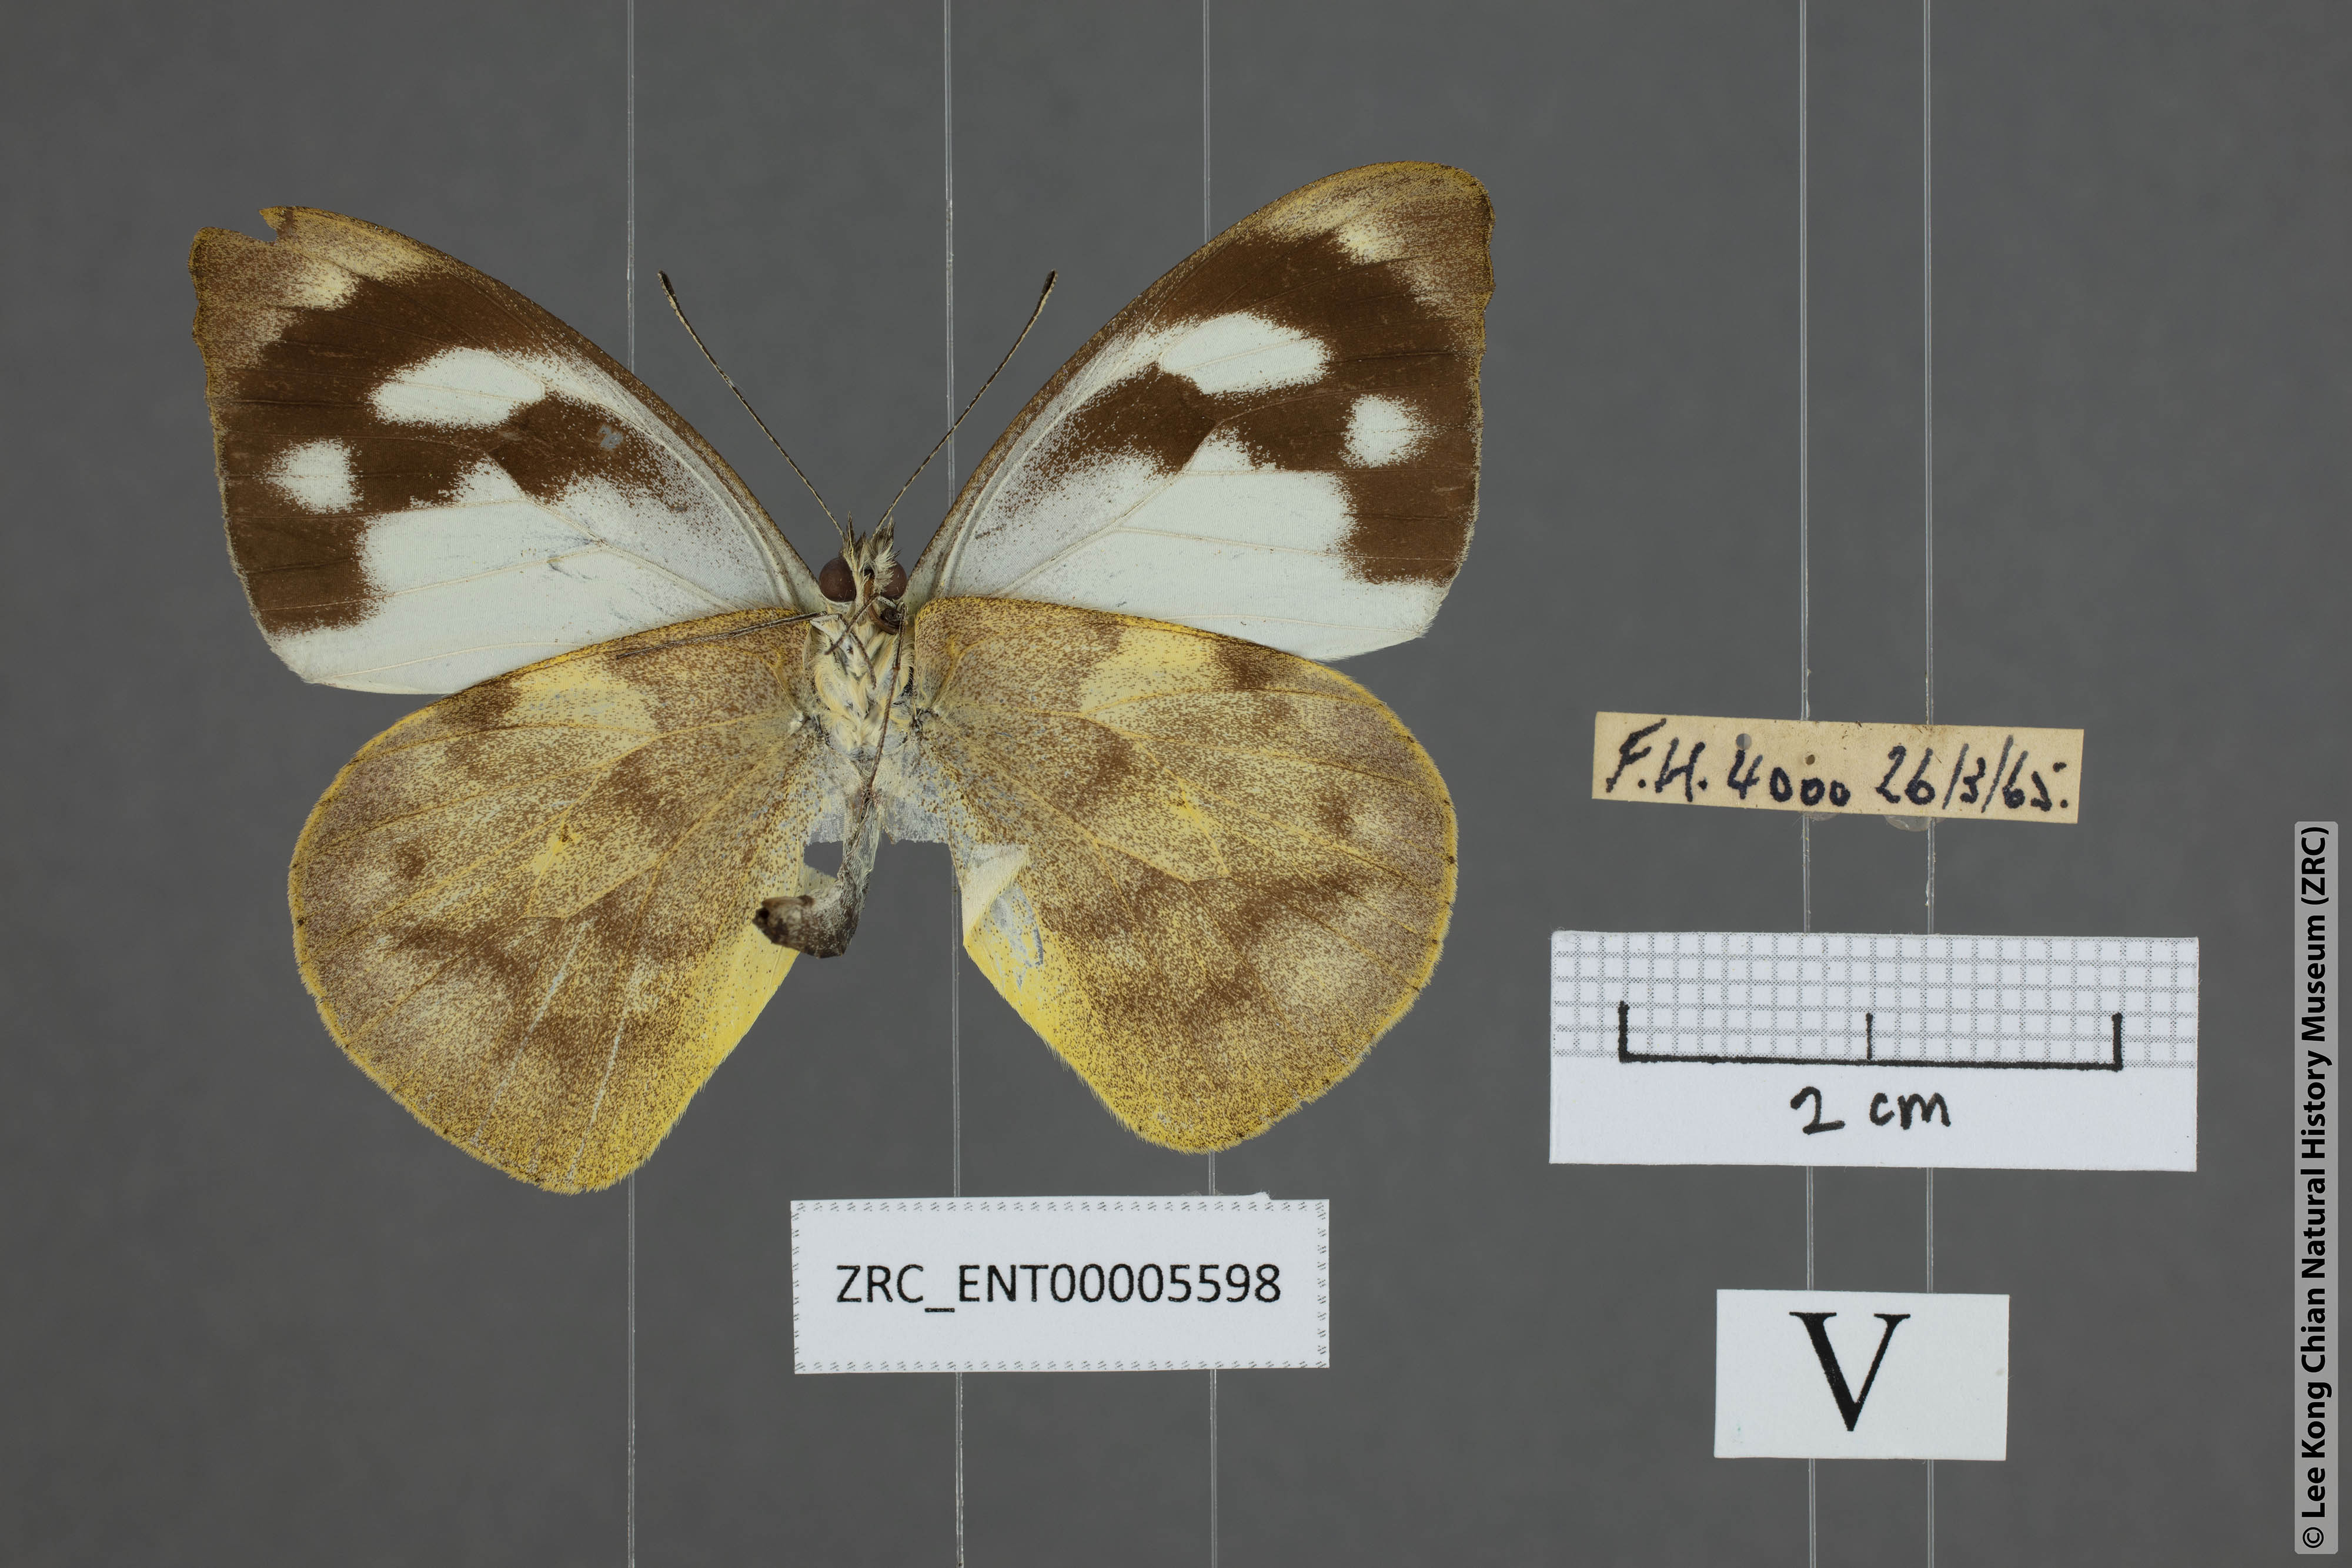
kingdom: Animalia
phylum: Arthropoda
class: Insecta
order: Lepidoptera
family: Pieridae
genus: Appias
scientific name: Appias pandione
